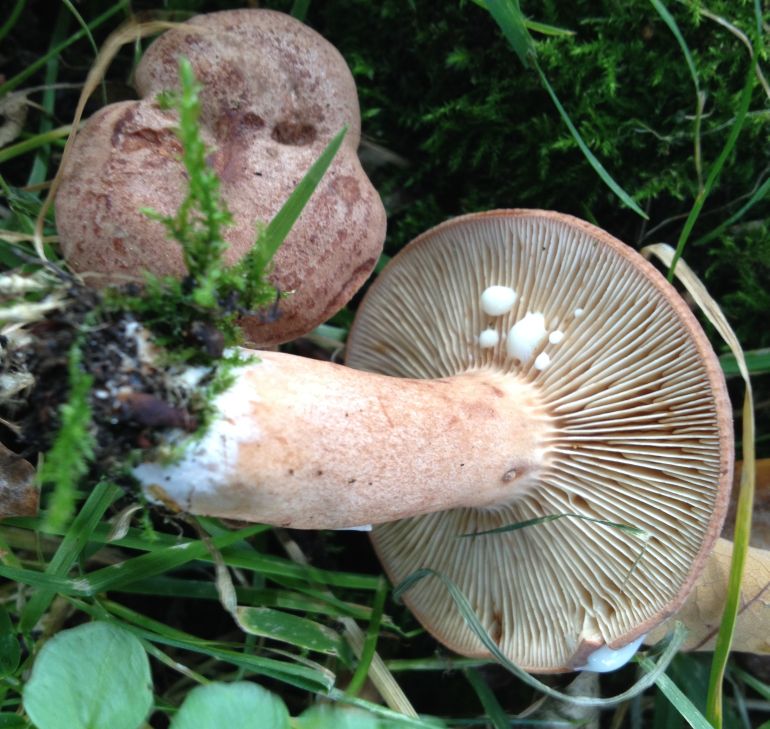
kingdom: Fungi
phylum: Basidiomycota
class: Agaricomycetes
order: Russulales
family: Russulaceae
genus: Lactarius
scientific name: Lactarius quietus
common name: ege-mælkehat
